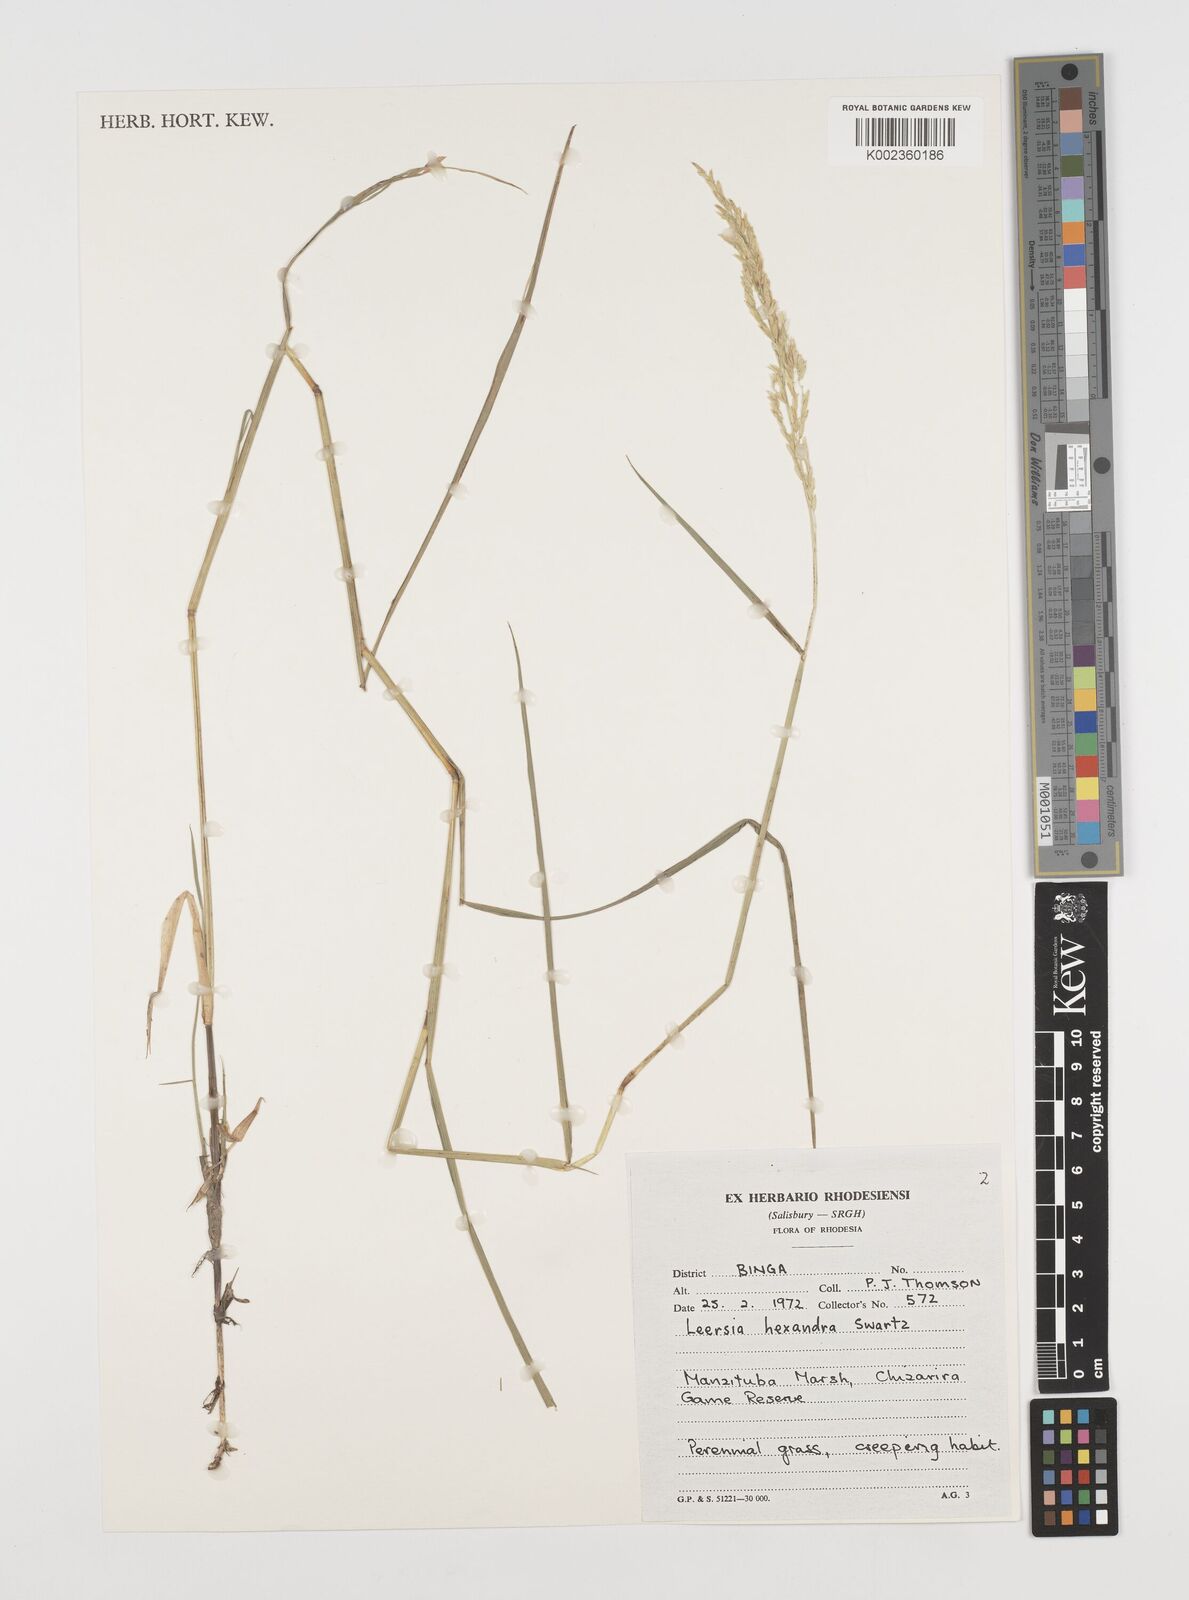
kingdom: Plantae
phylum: Tracheophyta
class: Liliopsida
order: Poales
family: Poaceae
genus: Leersia
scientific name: Leersia hexandra
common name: Southern cut grass
